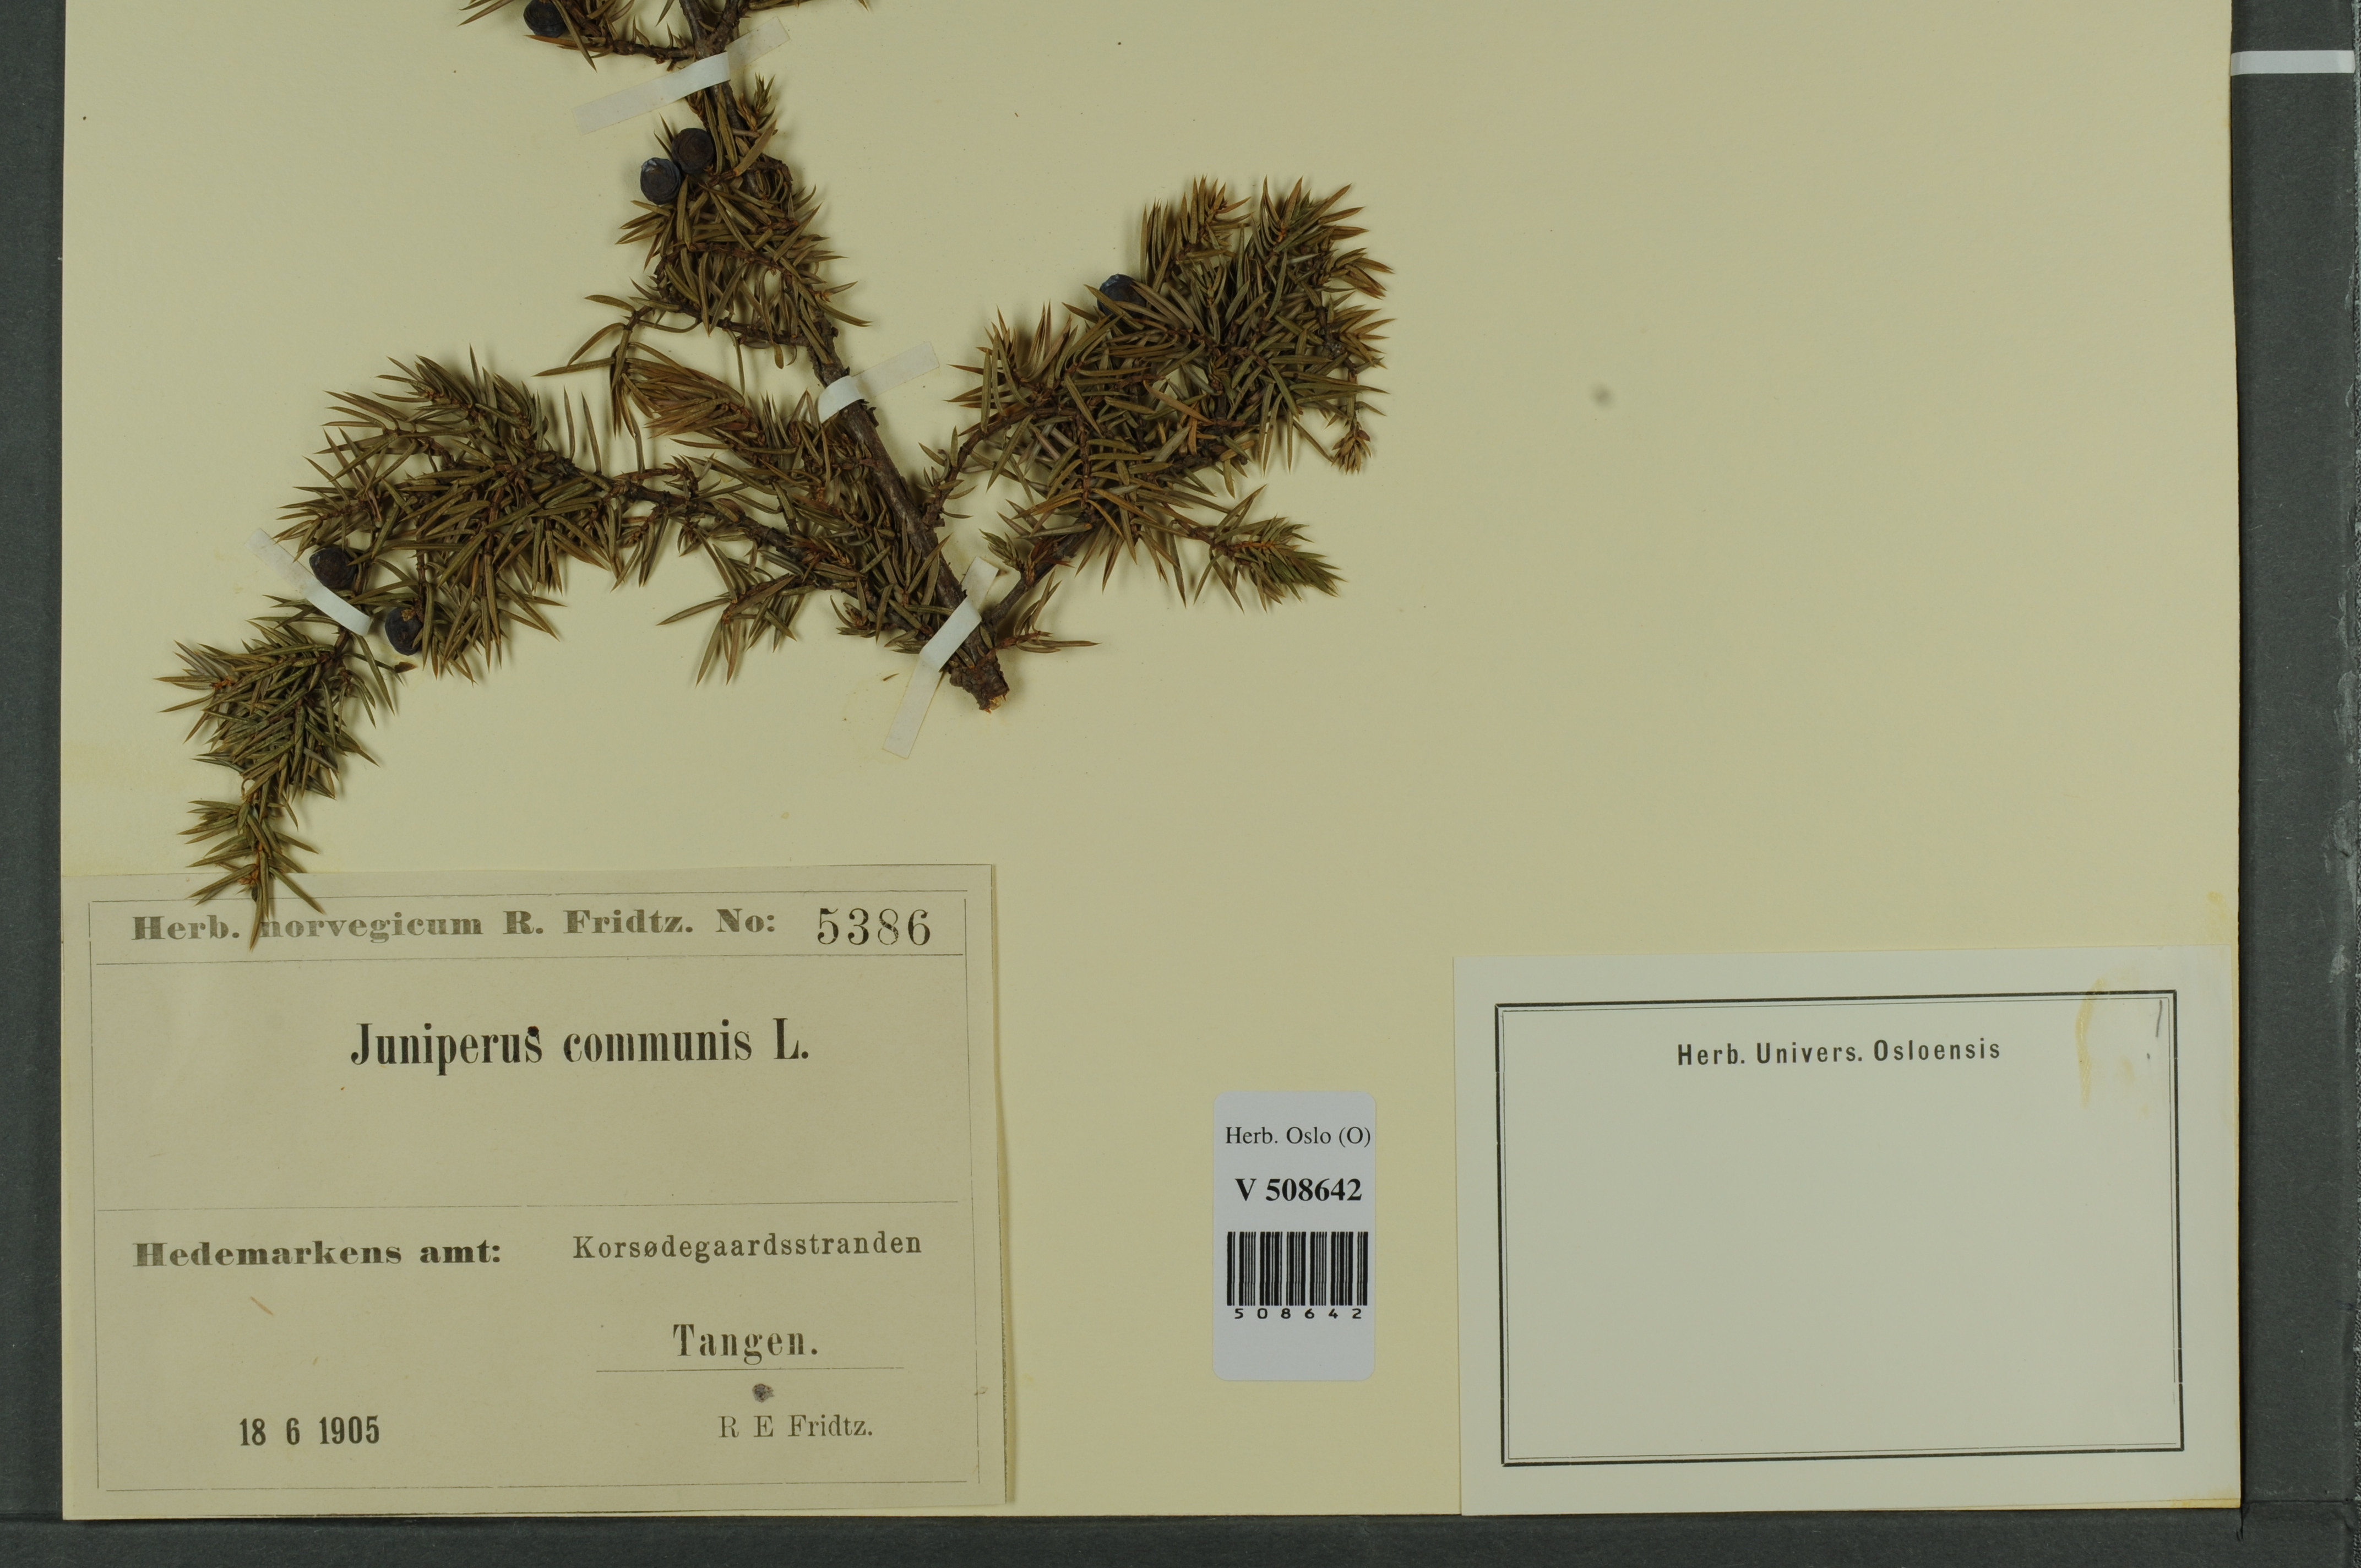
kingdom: Plantae
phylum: Tracheophyta
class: Pinopsida
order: Pinales
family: Cupressaceae
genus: Juniperus
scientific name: Juniperus communis
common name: Common juniper
